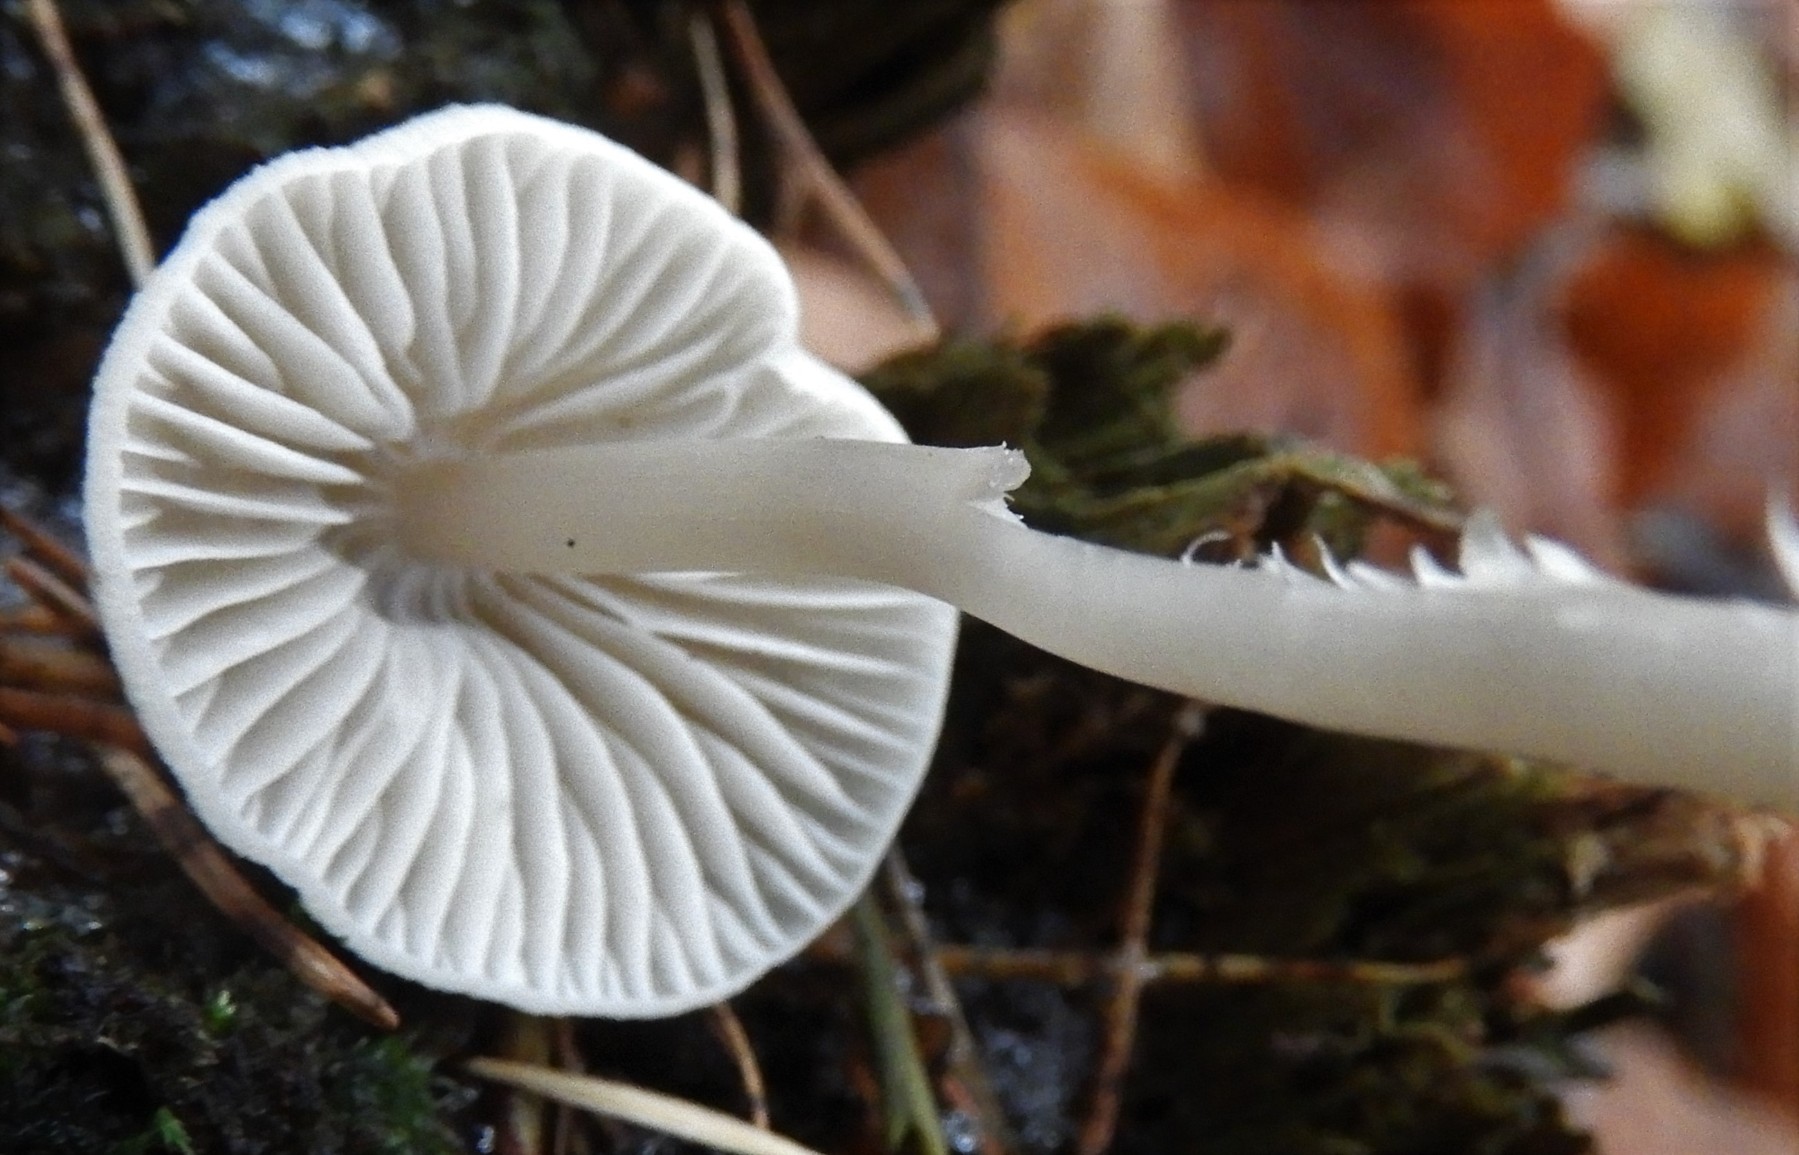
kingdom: Fungi
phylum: Basidiomycota
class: Agaricomycetes
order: Agaricales
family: Mycenaceae
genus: Mycena
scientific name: Mycena galericulata
